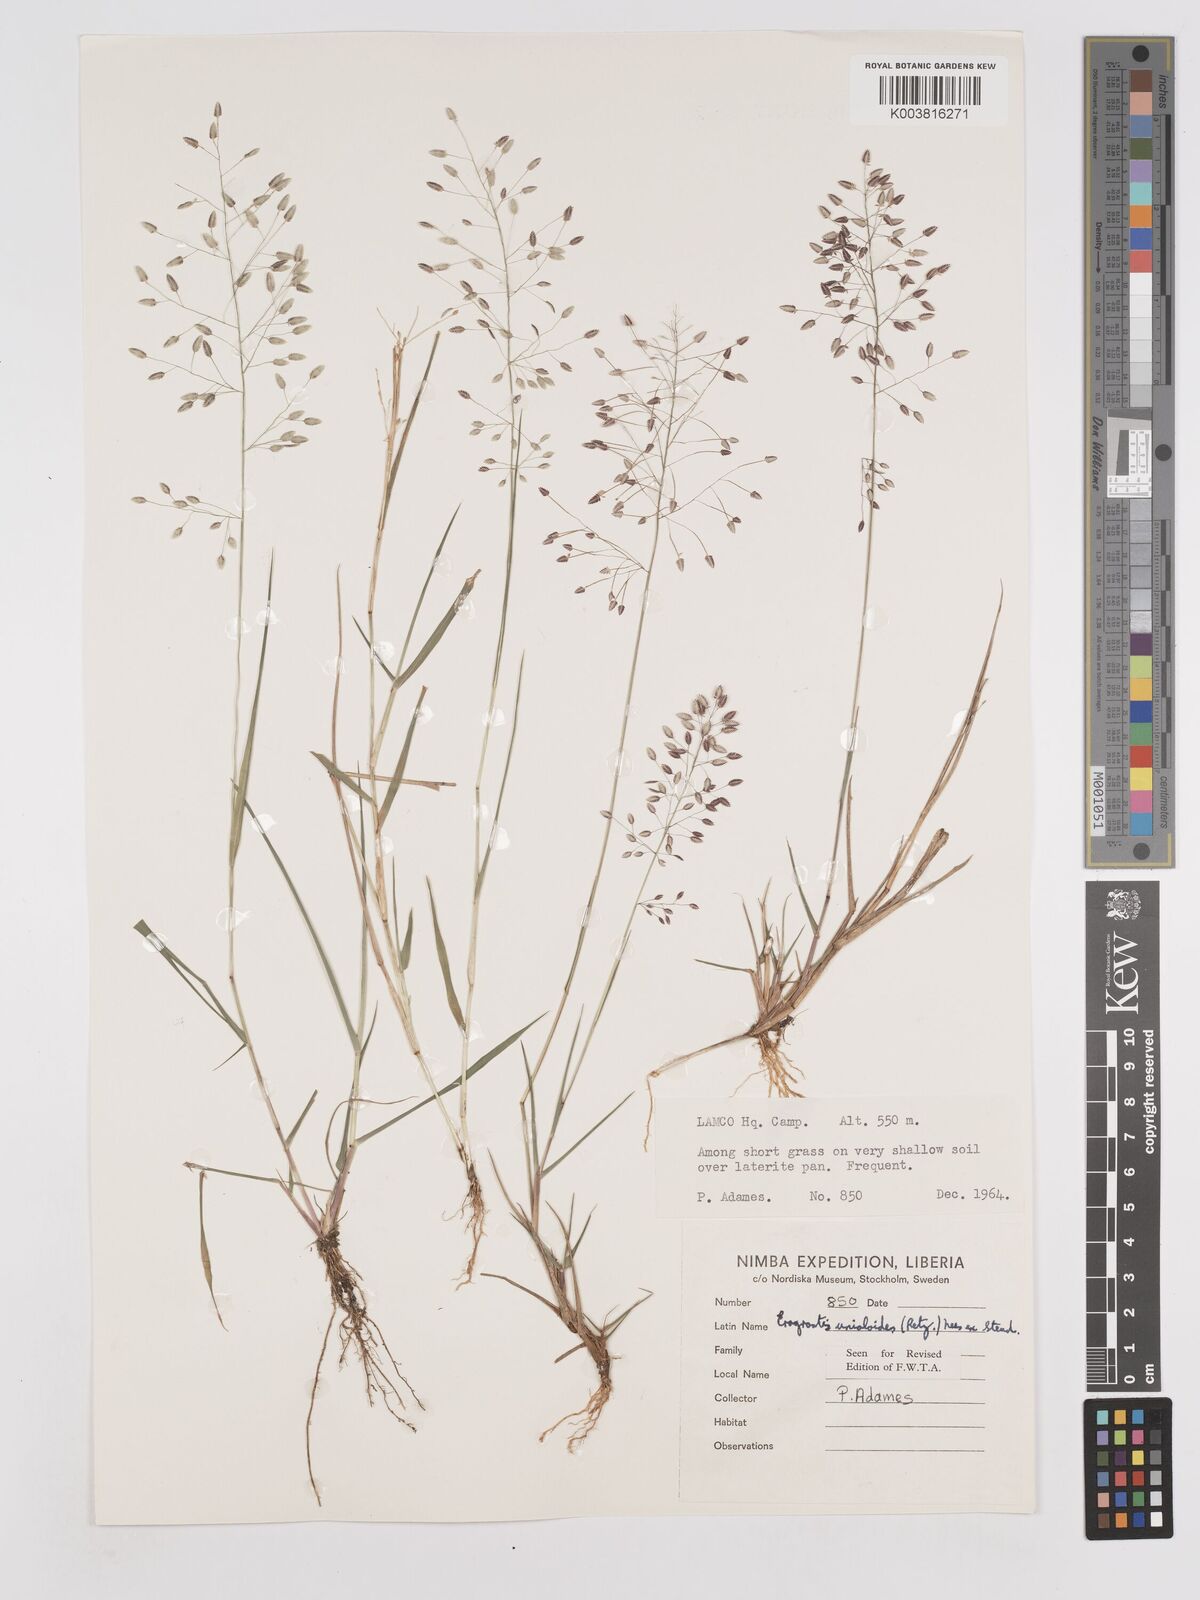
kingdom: Plantae
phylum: Tracheophyta
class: Liliopsida
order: Poales
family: Poaceae
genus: Eragrostis
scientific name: Eragrostis unioloides
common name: Chinese lovegrass
